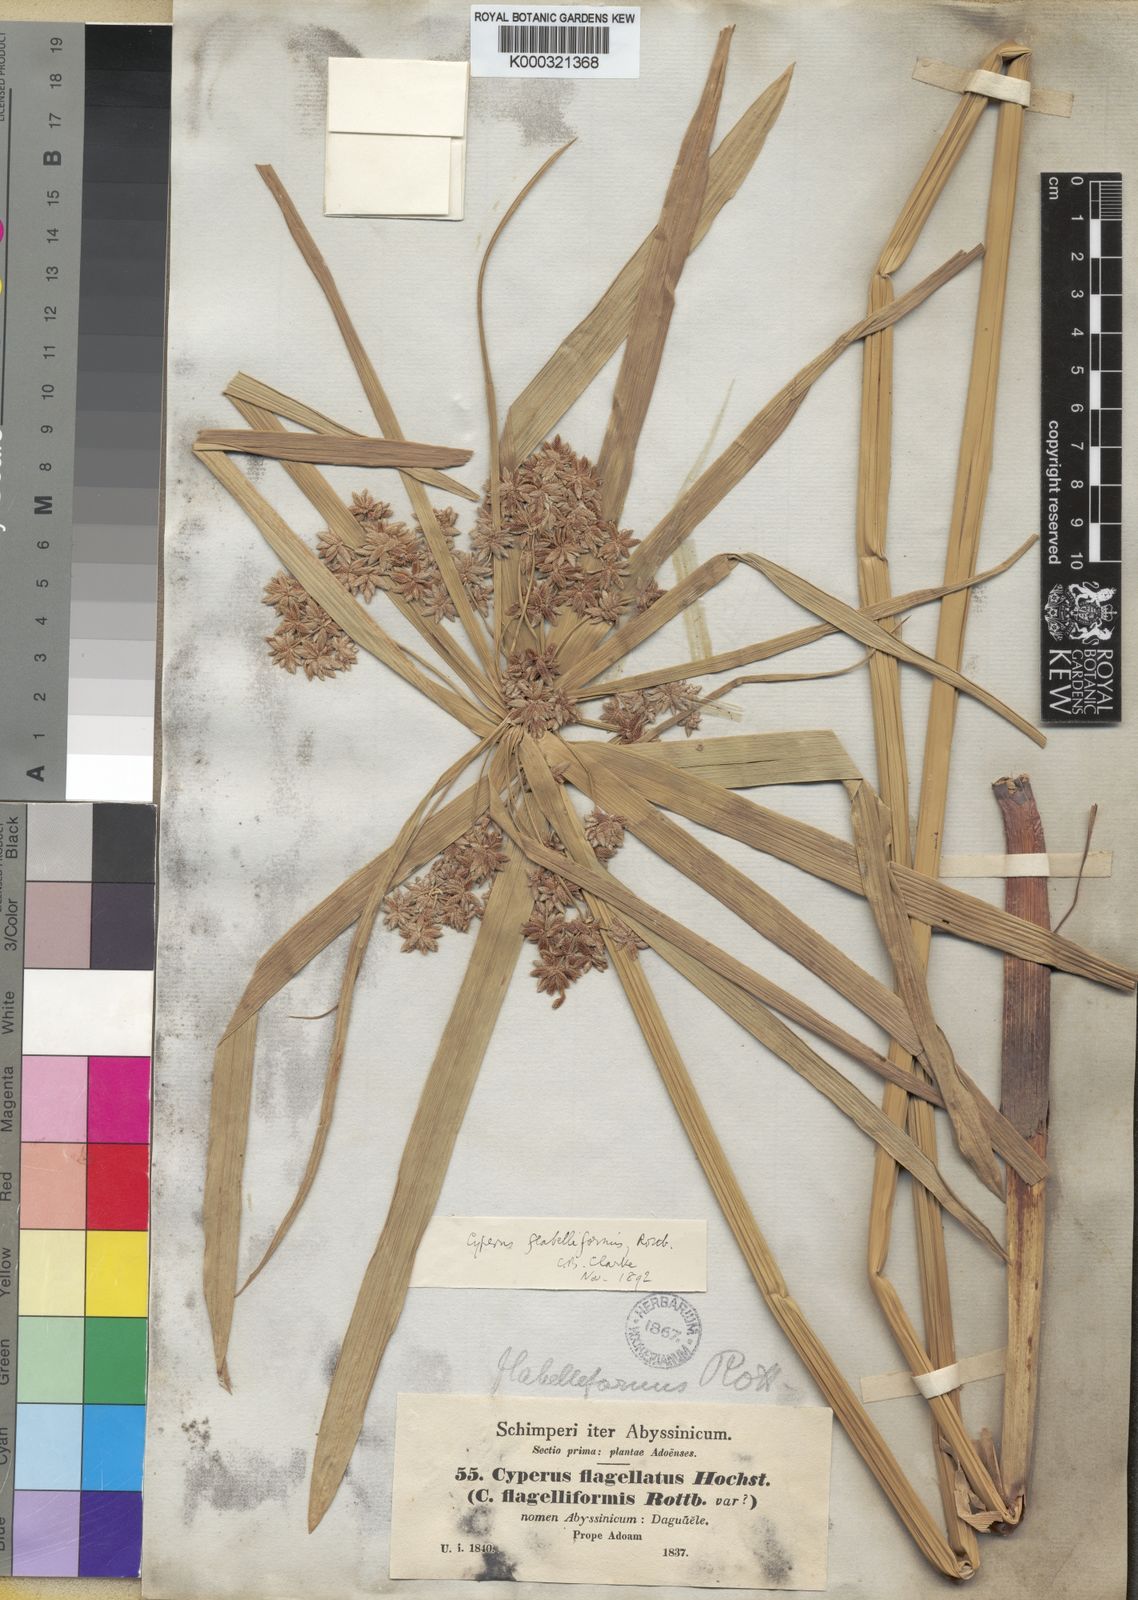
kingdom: Plantae
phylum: Tracheophyta
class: Liliopsida
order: Poales
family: Cyperaceae
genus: Cyperus
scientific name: Cyperus alternifolius
